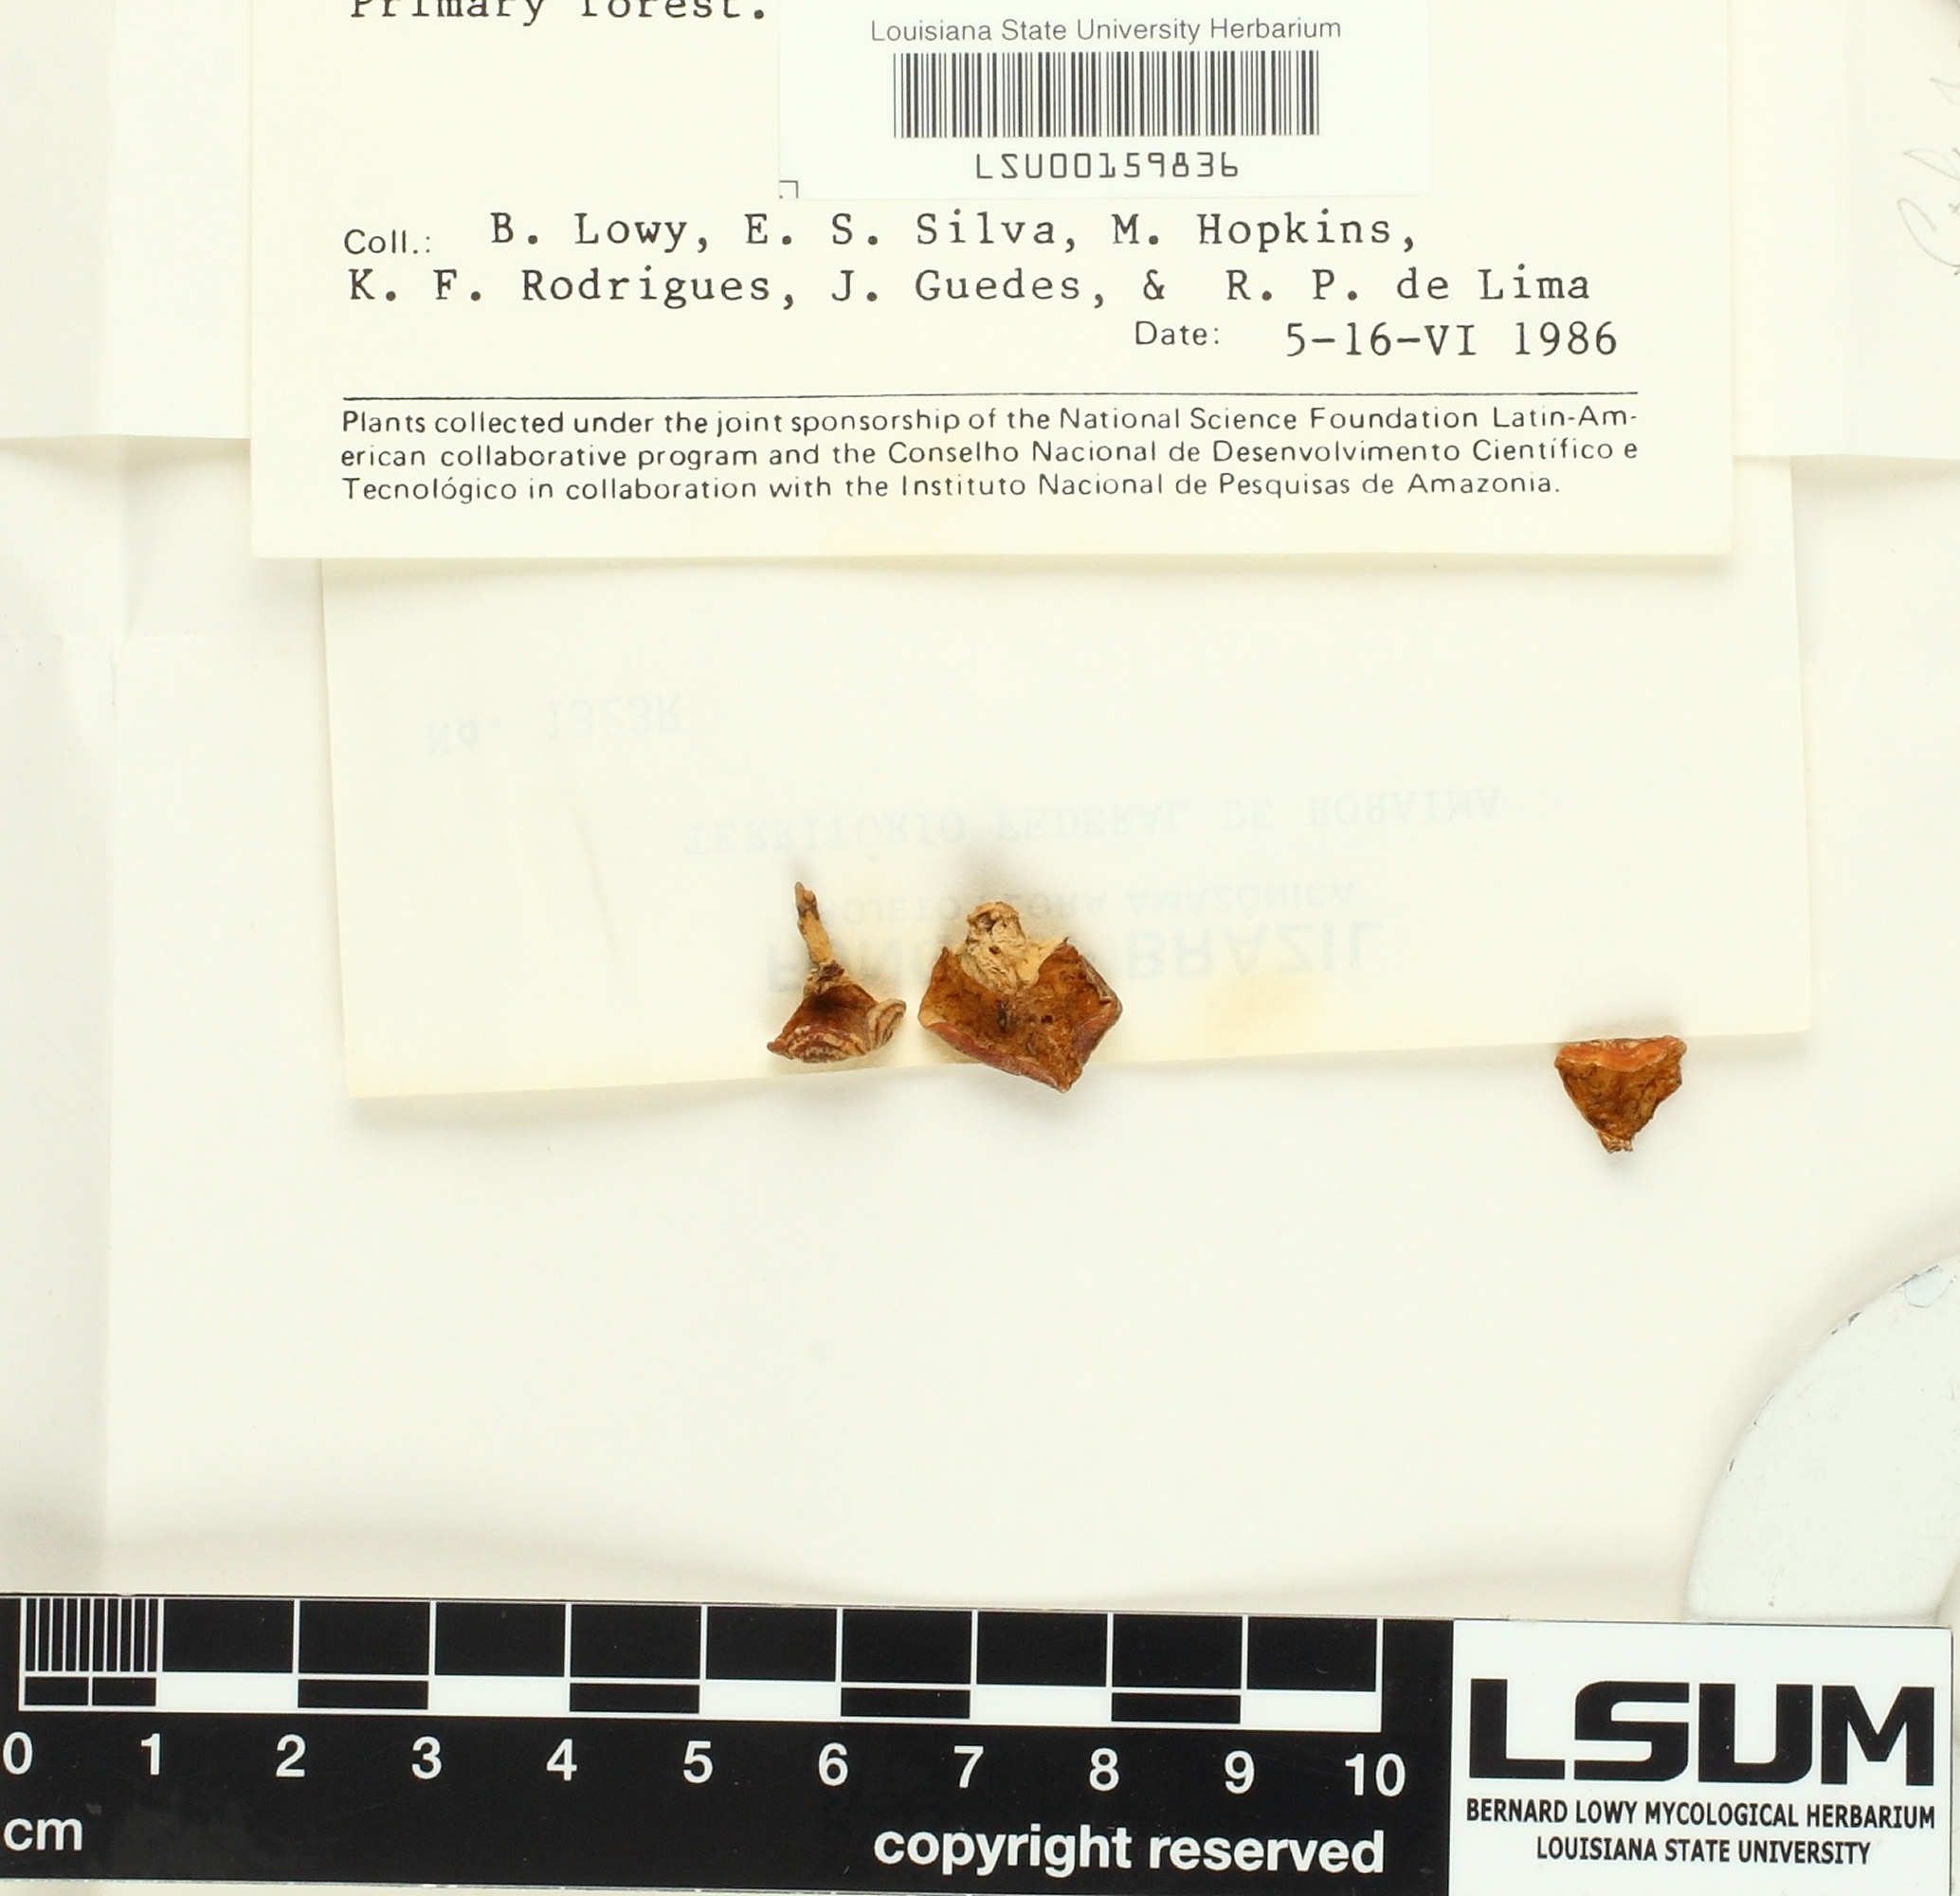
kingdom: Fungi
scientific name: Fungi
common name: Fungi
